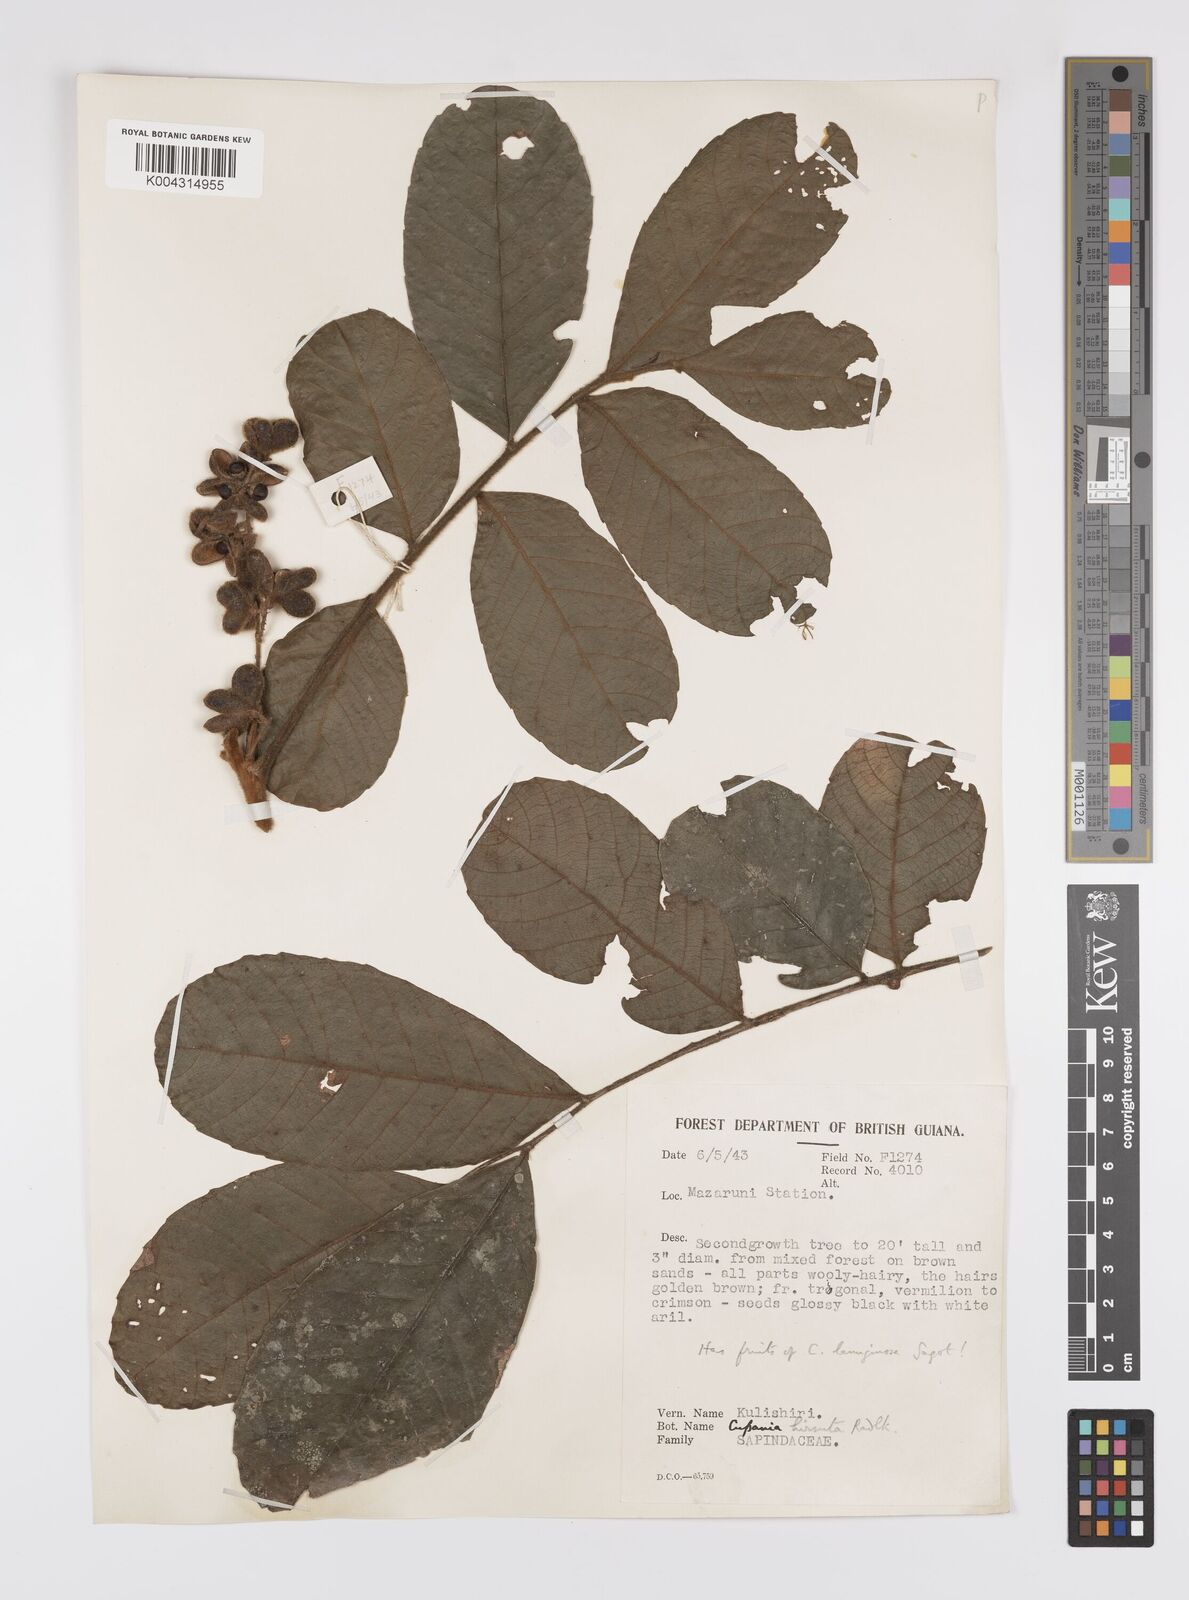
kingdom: Plantae
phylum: Tracheophyta
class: Magnoliopsida
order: Sapindales
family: Sapindaceae
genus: Cupania
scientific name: Cupania hirsuta
